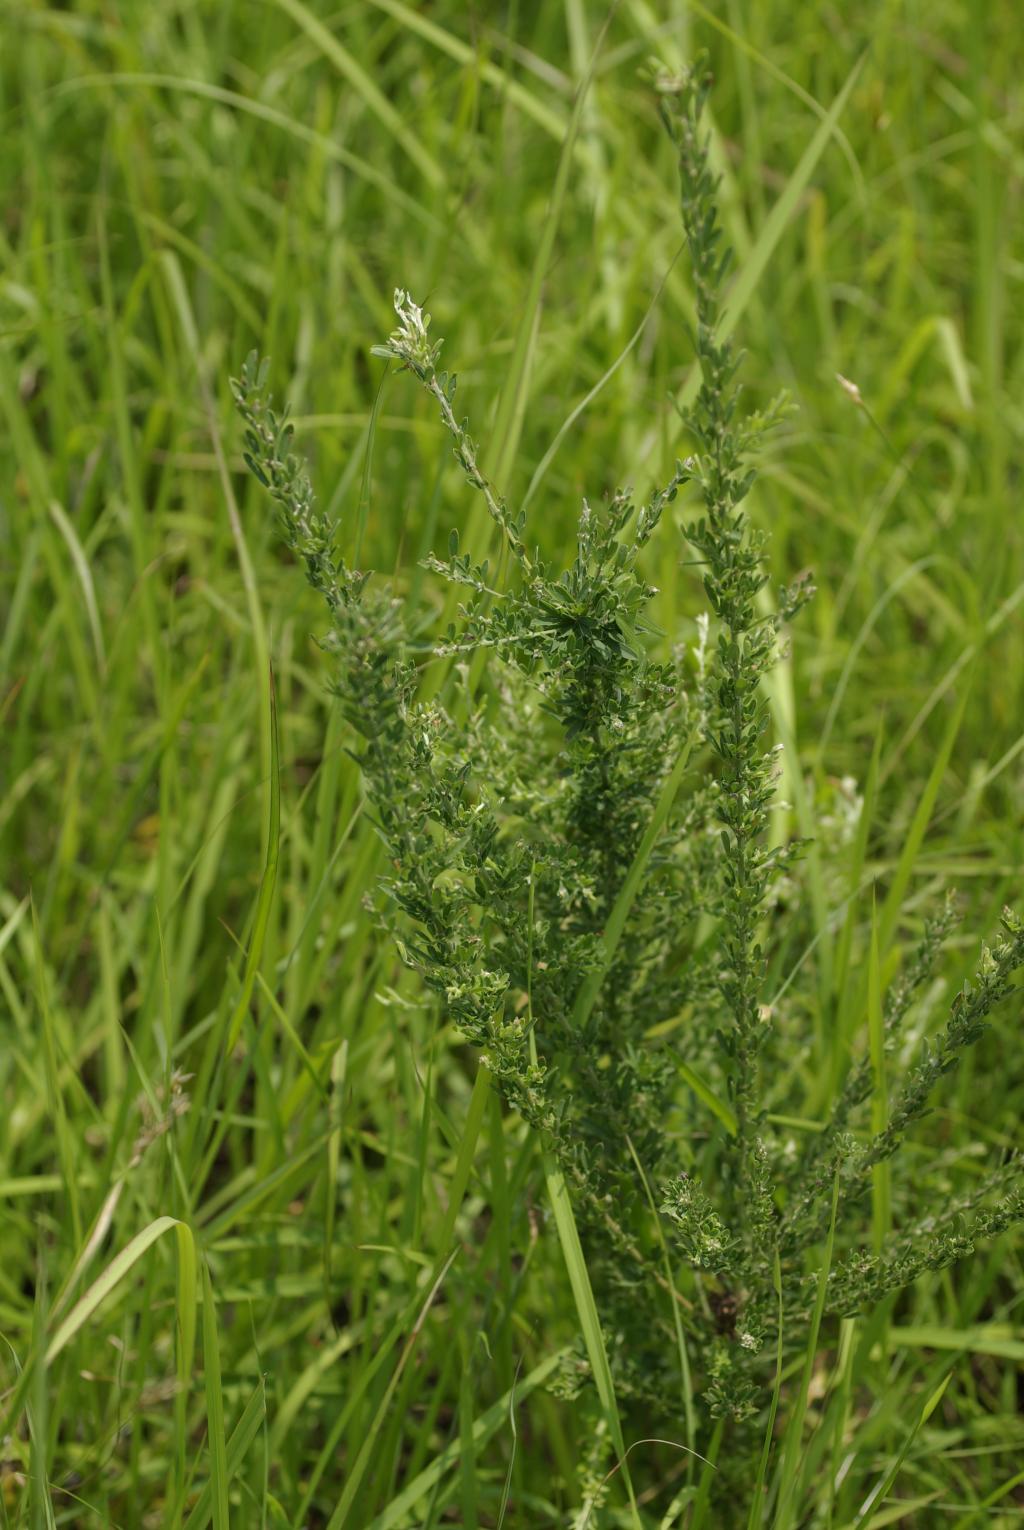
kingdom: Plantae
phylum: Tracheophyta
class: Magnoliopsida
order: Fabales
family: Fabaceae
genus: Lespedeza
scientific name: Lespedeza cuneata
